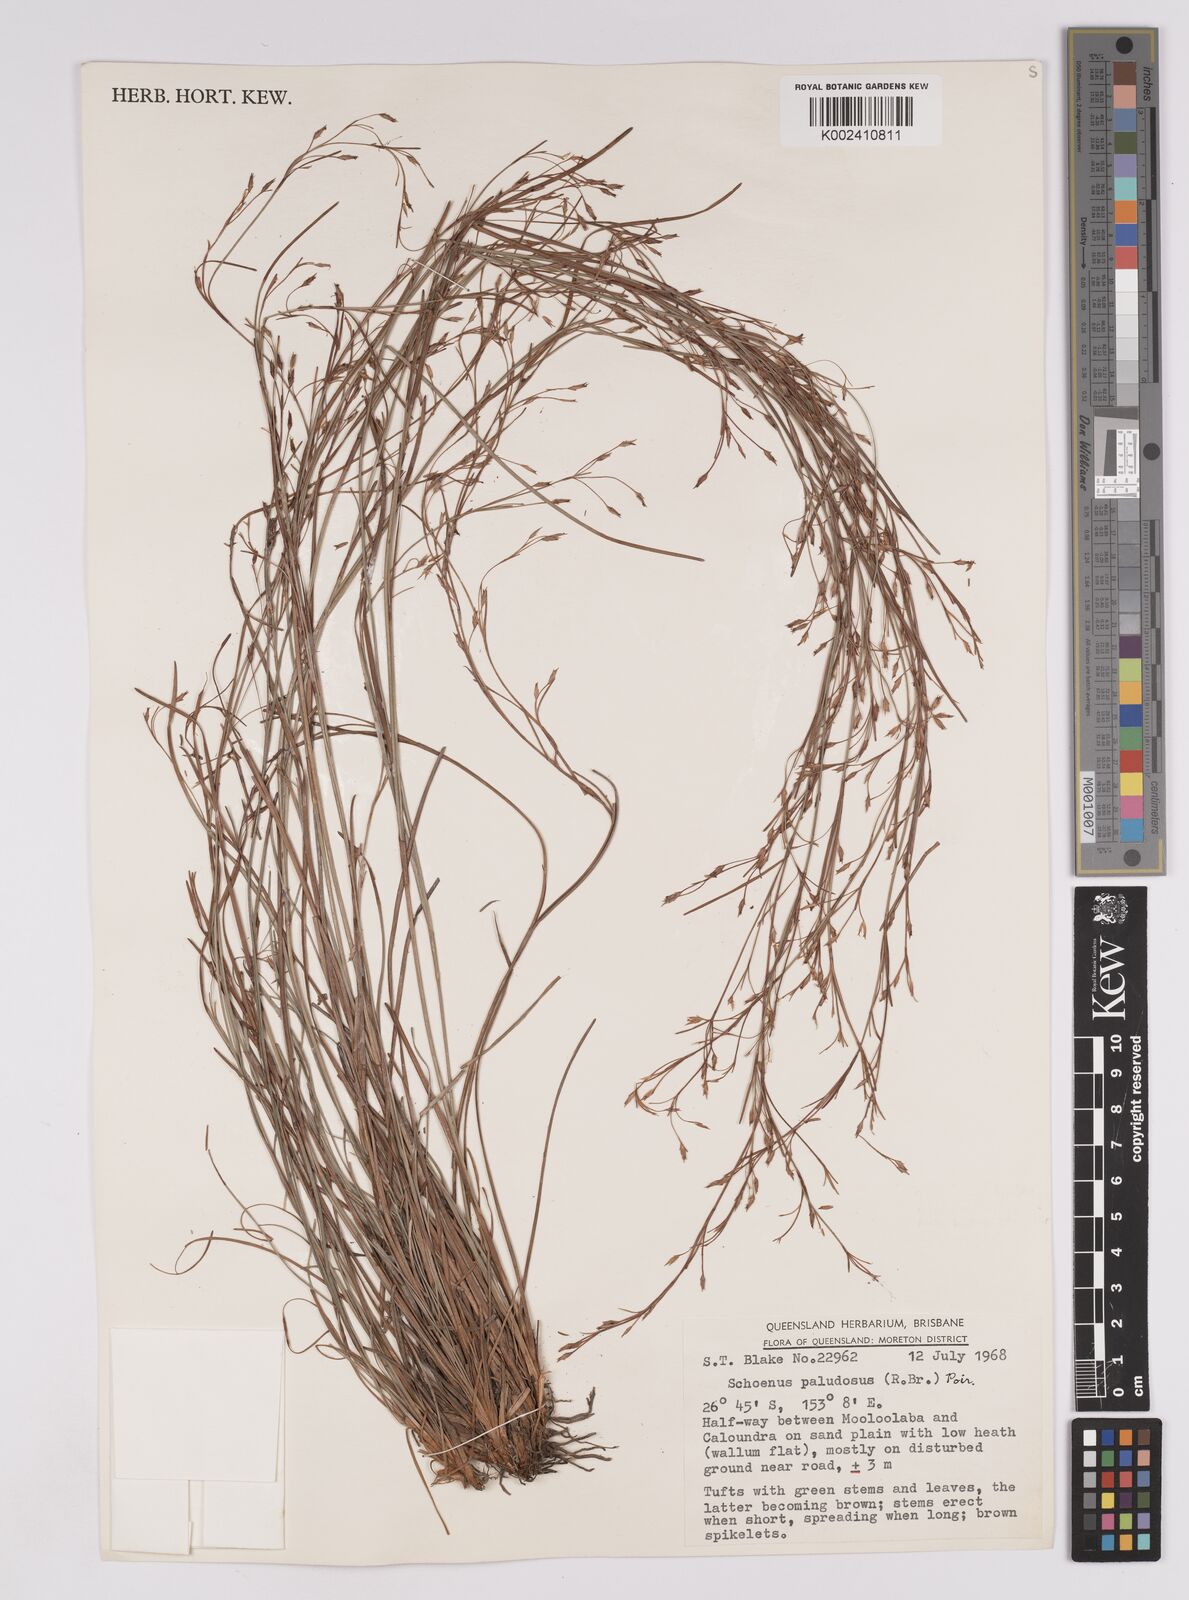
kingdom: Plantae
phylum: Tracheophyta
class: Liliopsida
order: Poales
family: Cyperaceae
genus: Anthelepis
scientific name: Anthelepis paludosa
